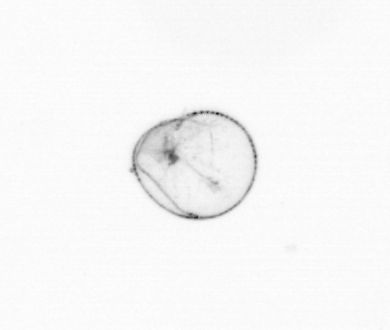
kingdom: Chromista
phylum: Myzozoa
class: Dinophyceae
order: Noctilucales
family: Noctilucaceae
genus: Noctiluca
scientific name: Noctiluca scintillans
